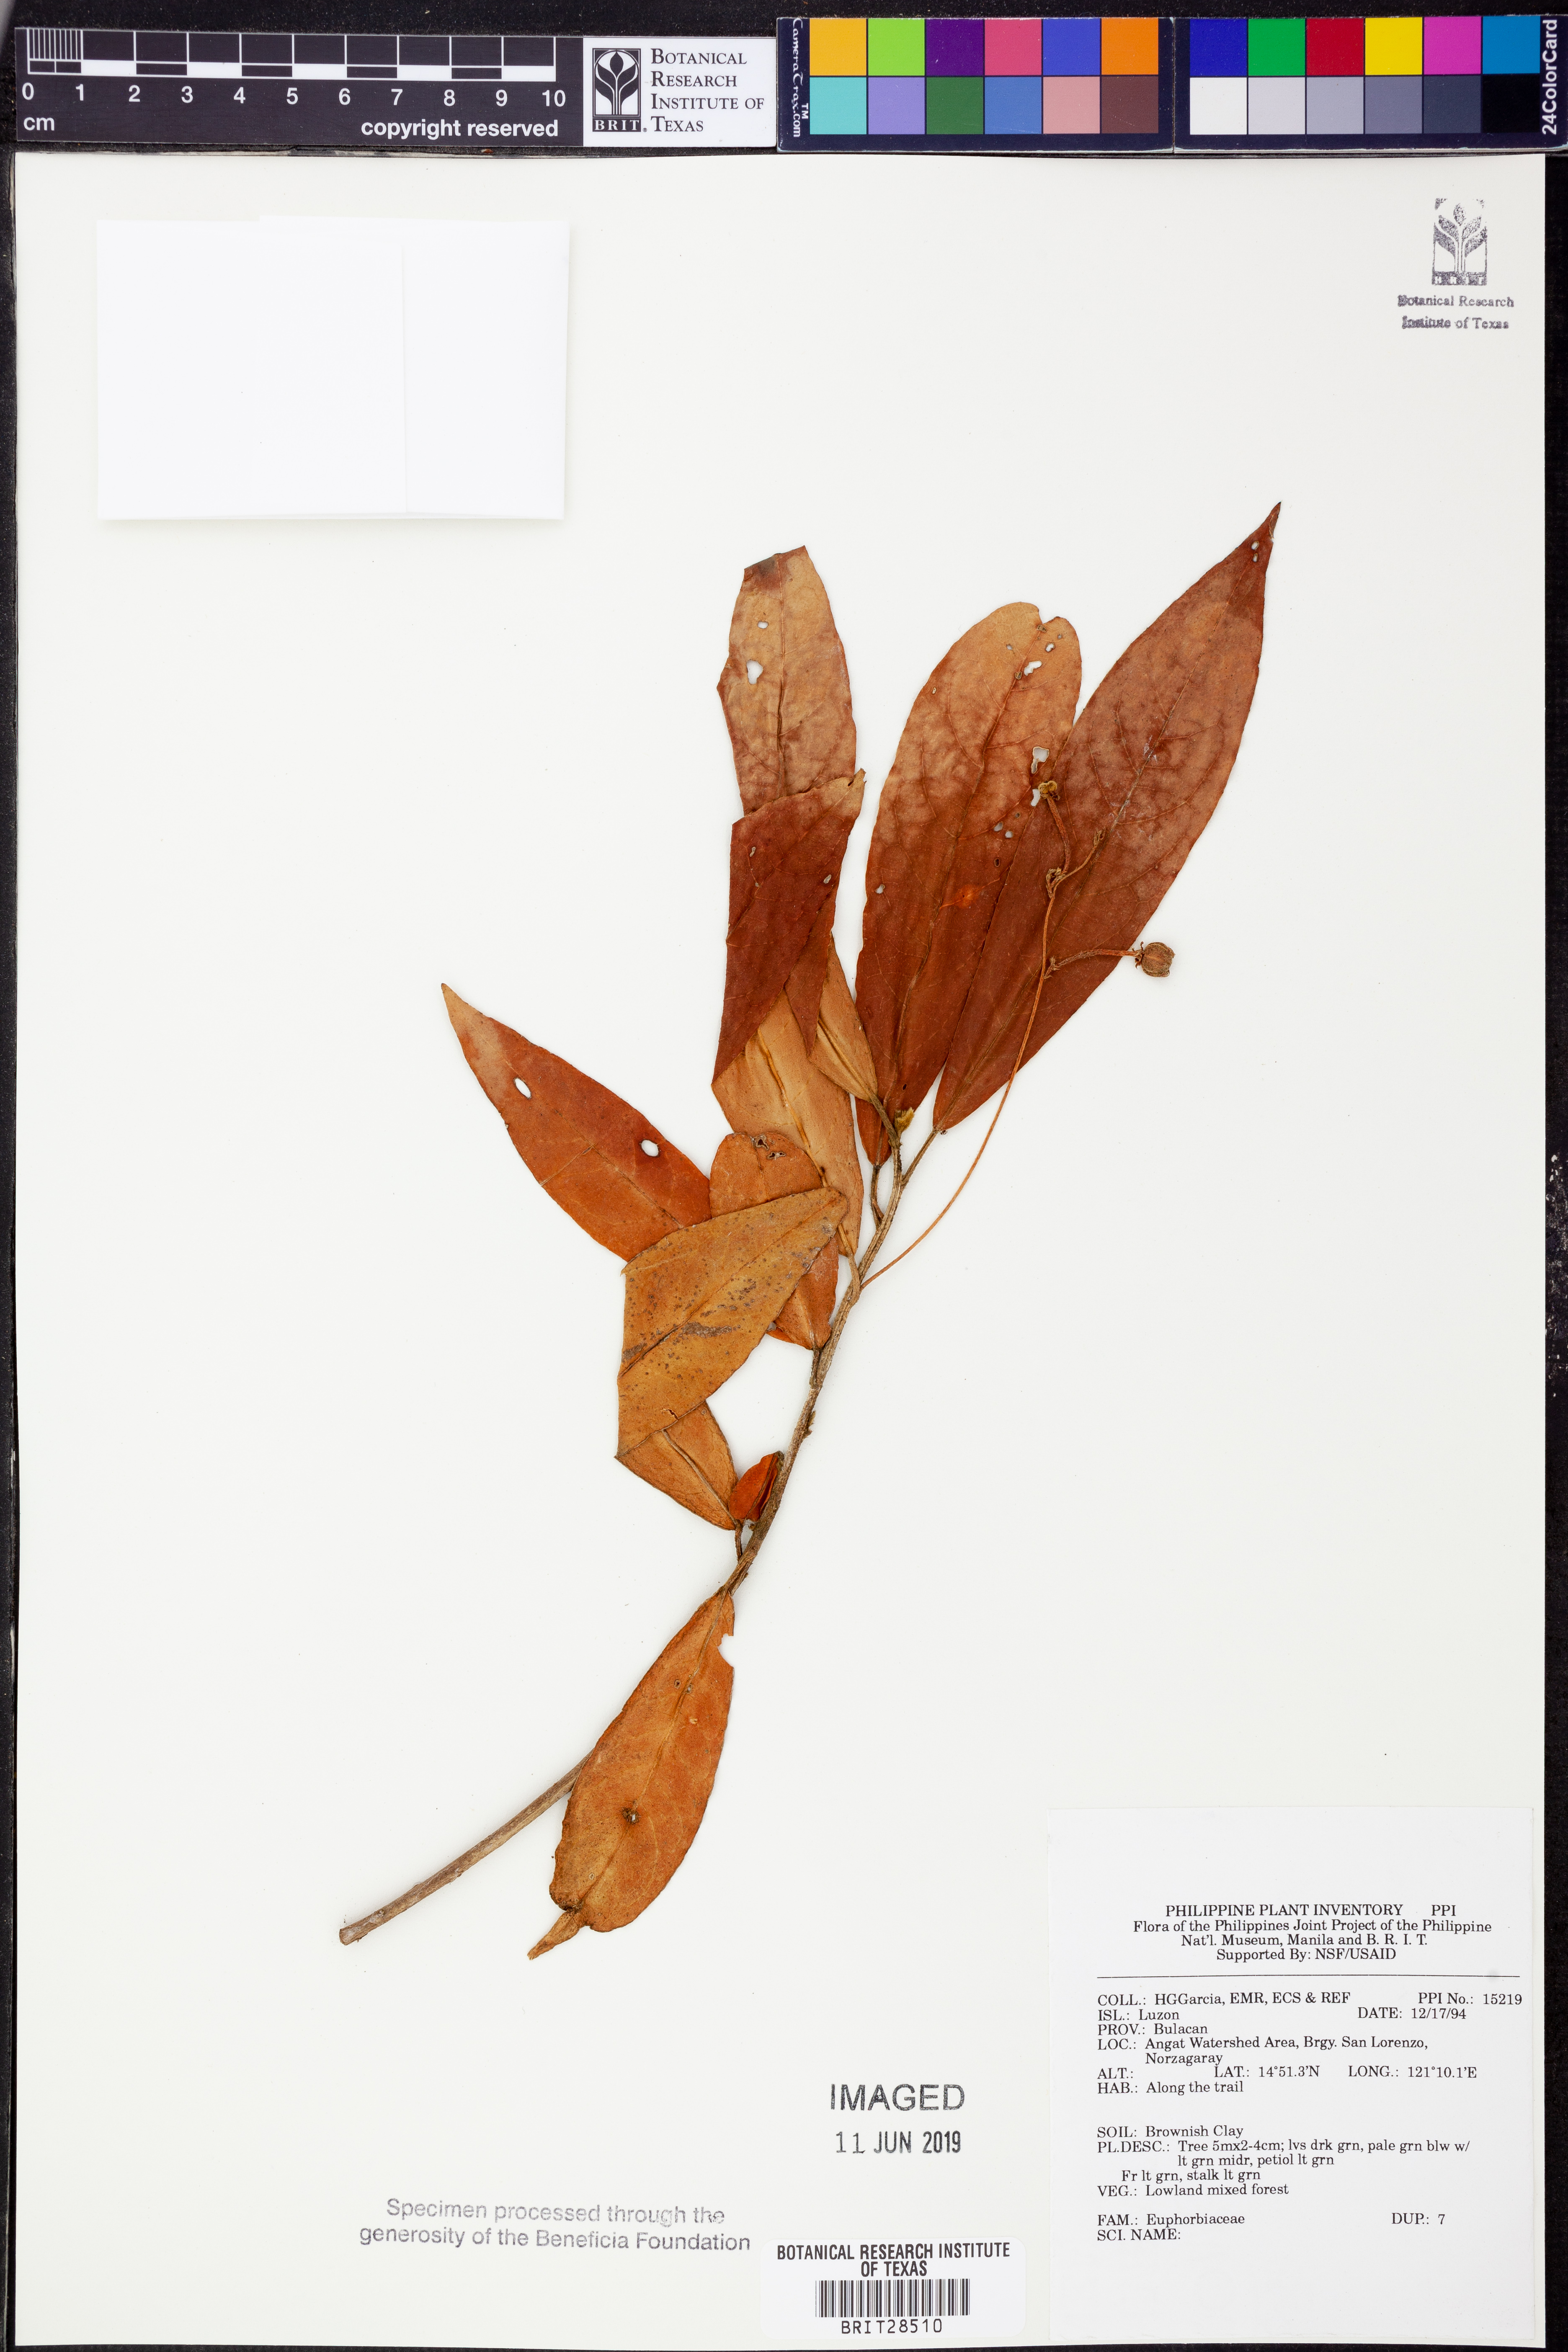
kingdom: Plantae
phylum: Tracheophyta
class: Magnoliopsida
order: Malpighiales
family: Euphorbiaceae
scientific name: Euphorbiaceae
